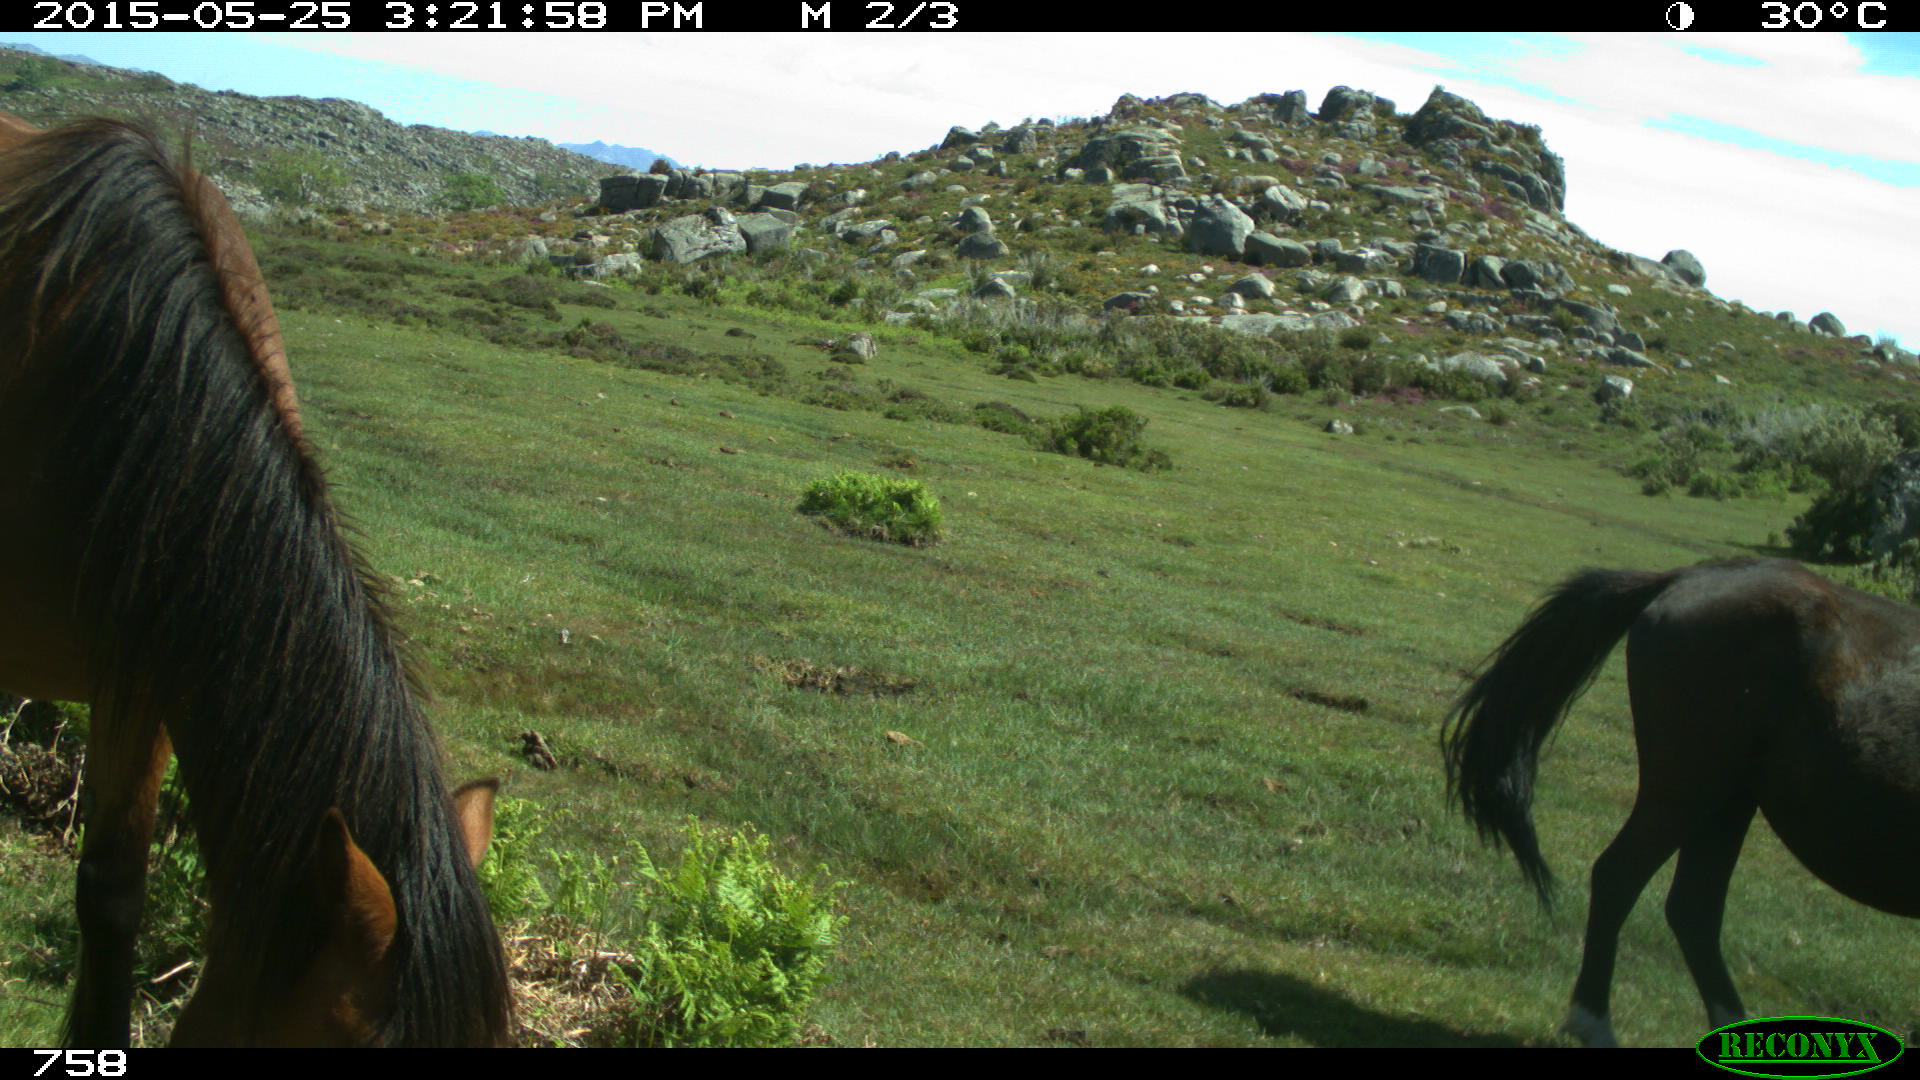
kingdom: Animalia
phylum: Chordata
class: Mammalia
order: Perissodactyla
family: Equidae
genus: Equus
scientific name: Equus caballus
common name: Horse
